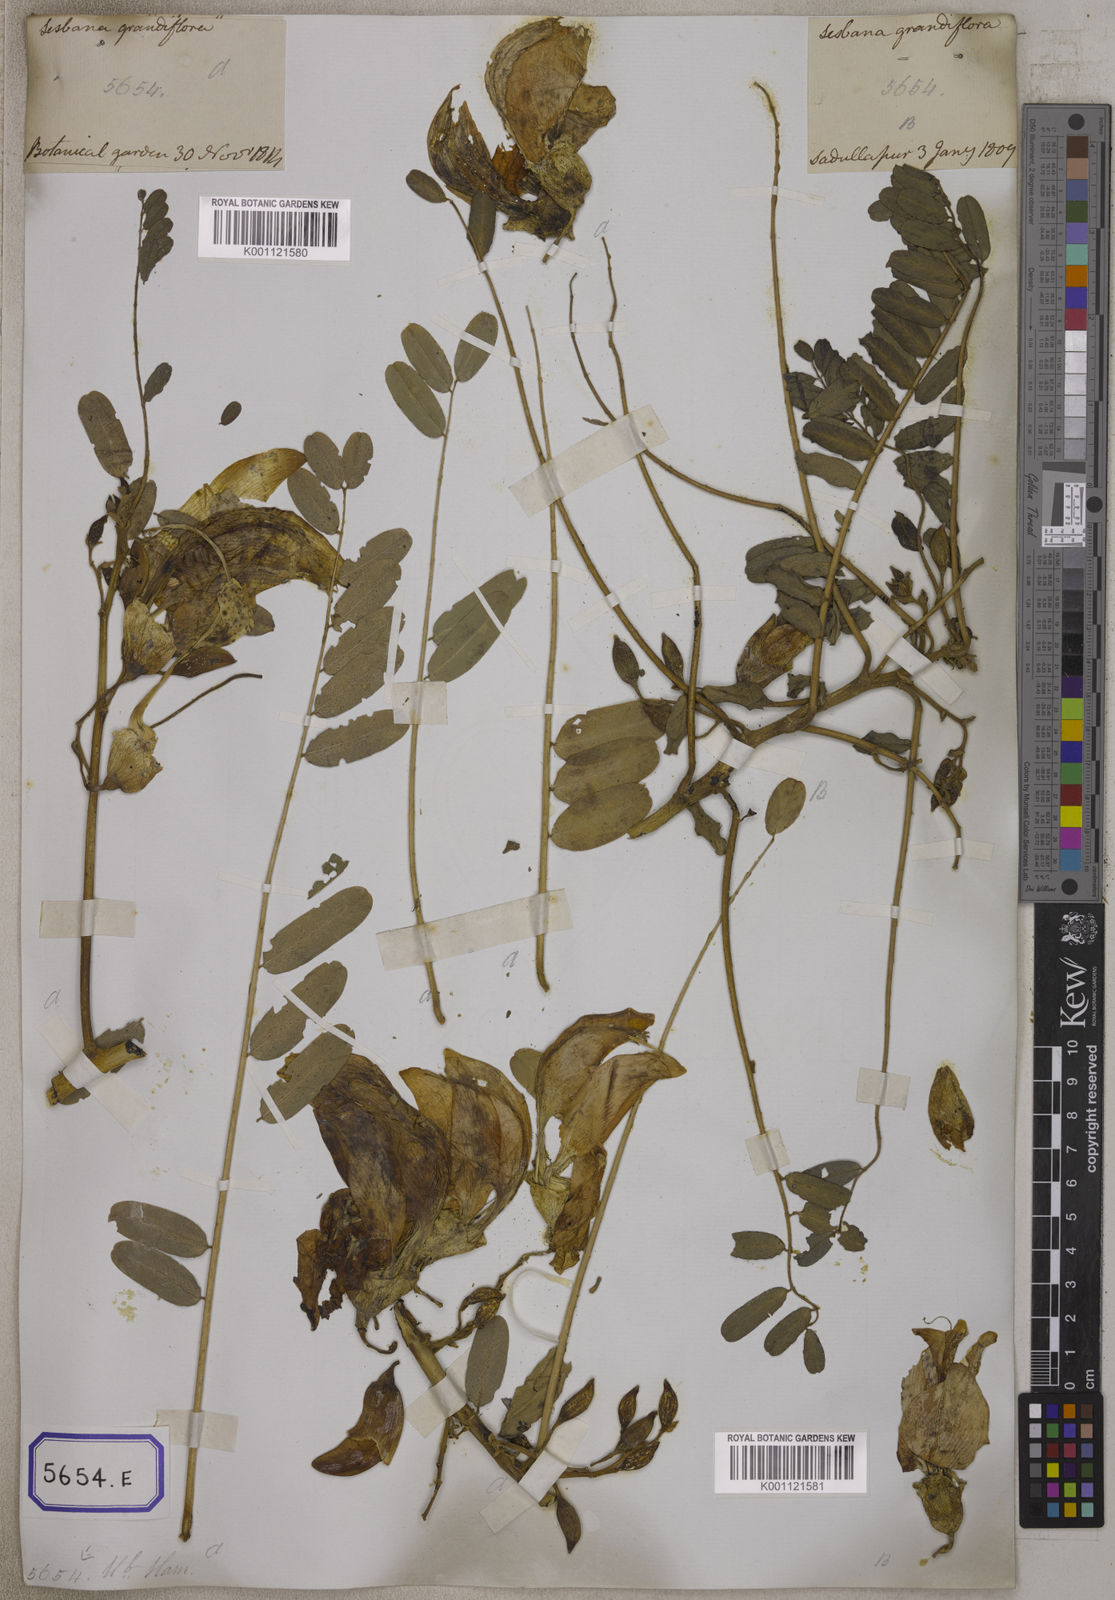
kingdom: Plantae
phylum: Tracheophyta
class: Magnoliopsida
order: Fabales
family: Fabaceae
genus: Sesbania
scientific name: Sesbania grandiflora
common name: Vegetable-hummingbird
